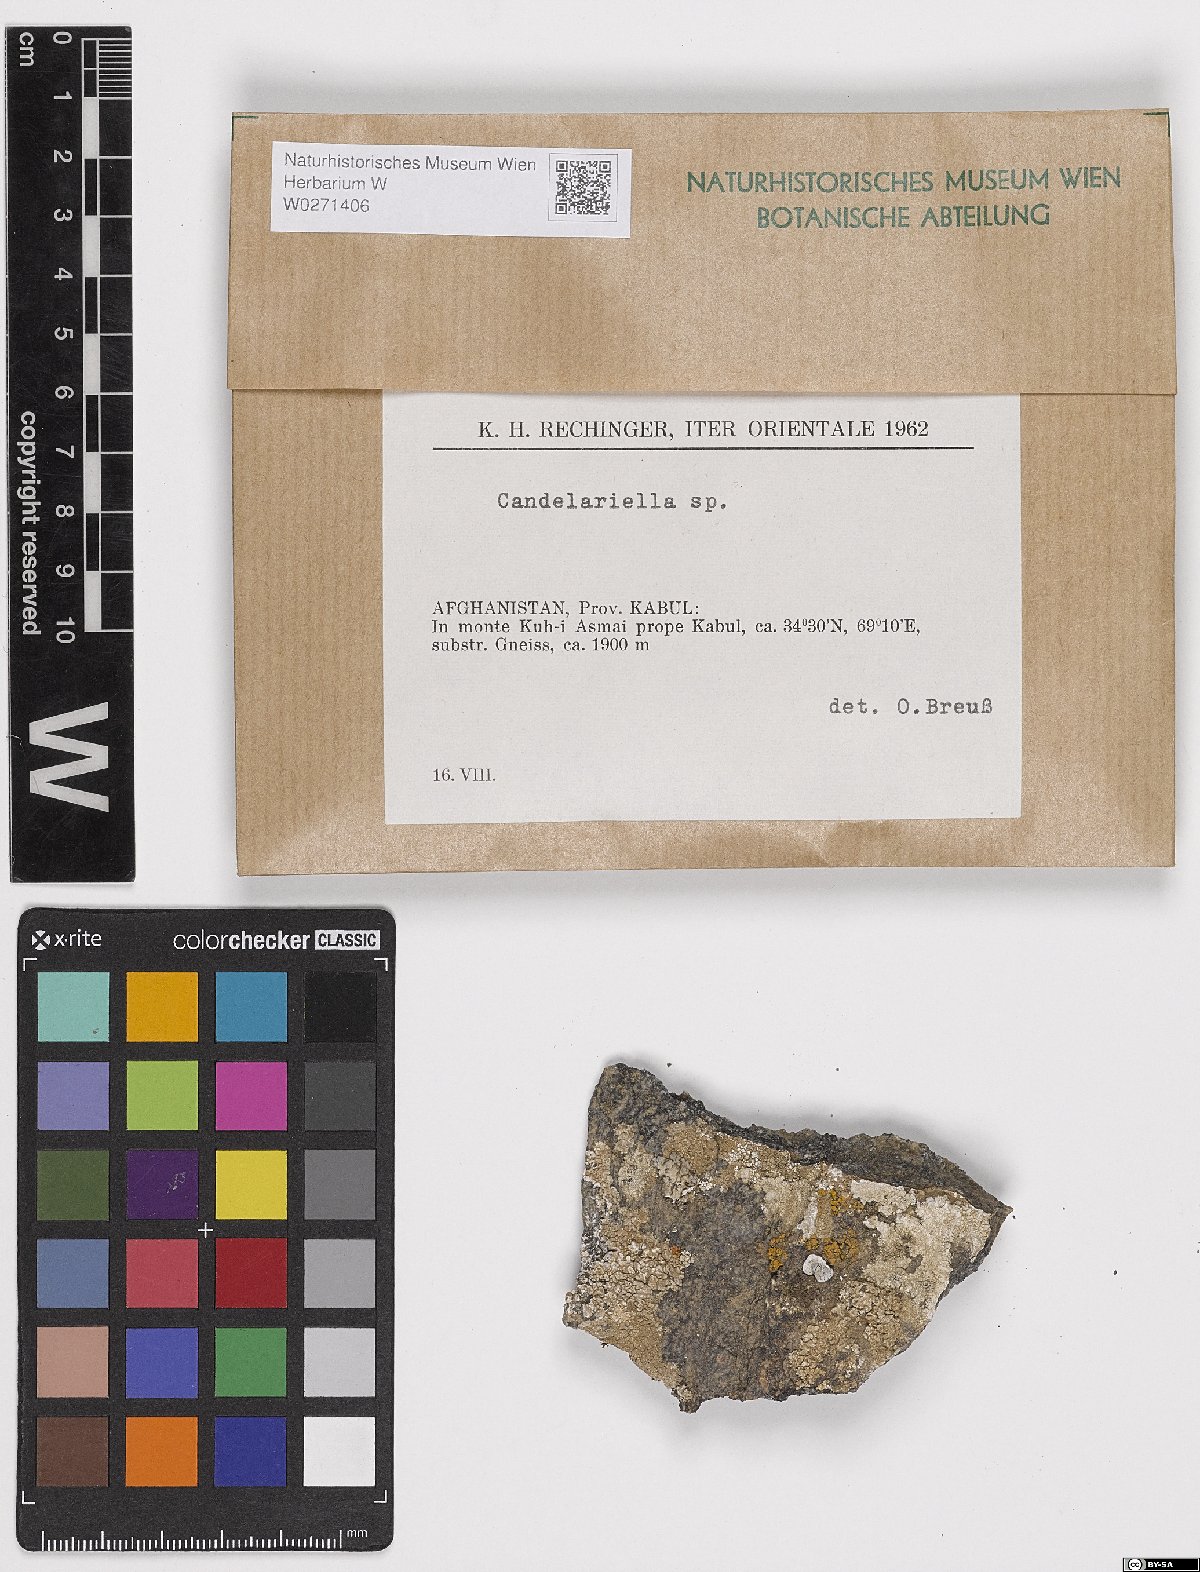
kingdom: Fungi
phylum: Ascomycota
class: Candelariomycetes
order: Candelariales
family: Candelariaceae
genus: Candelariella
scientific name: Candelariella
